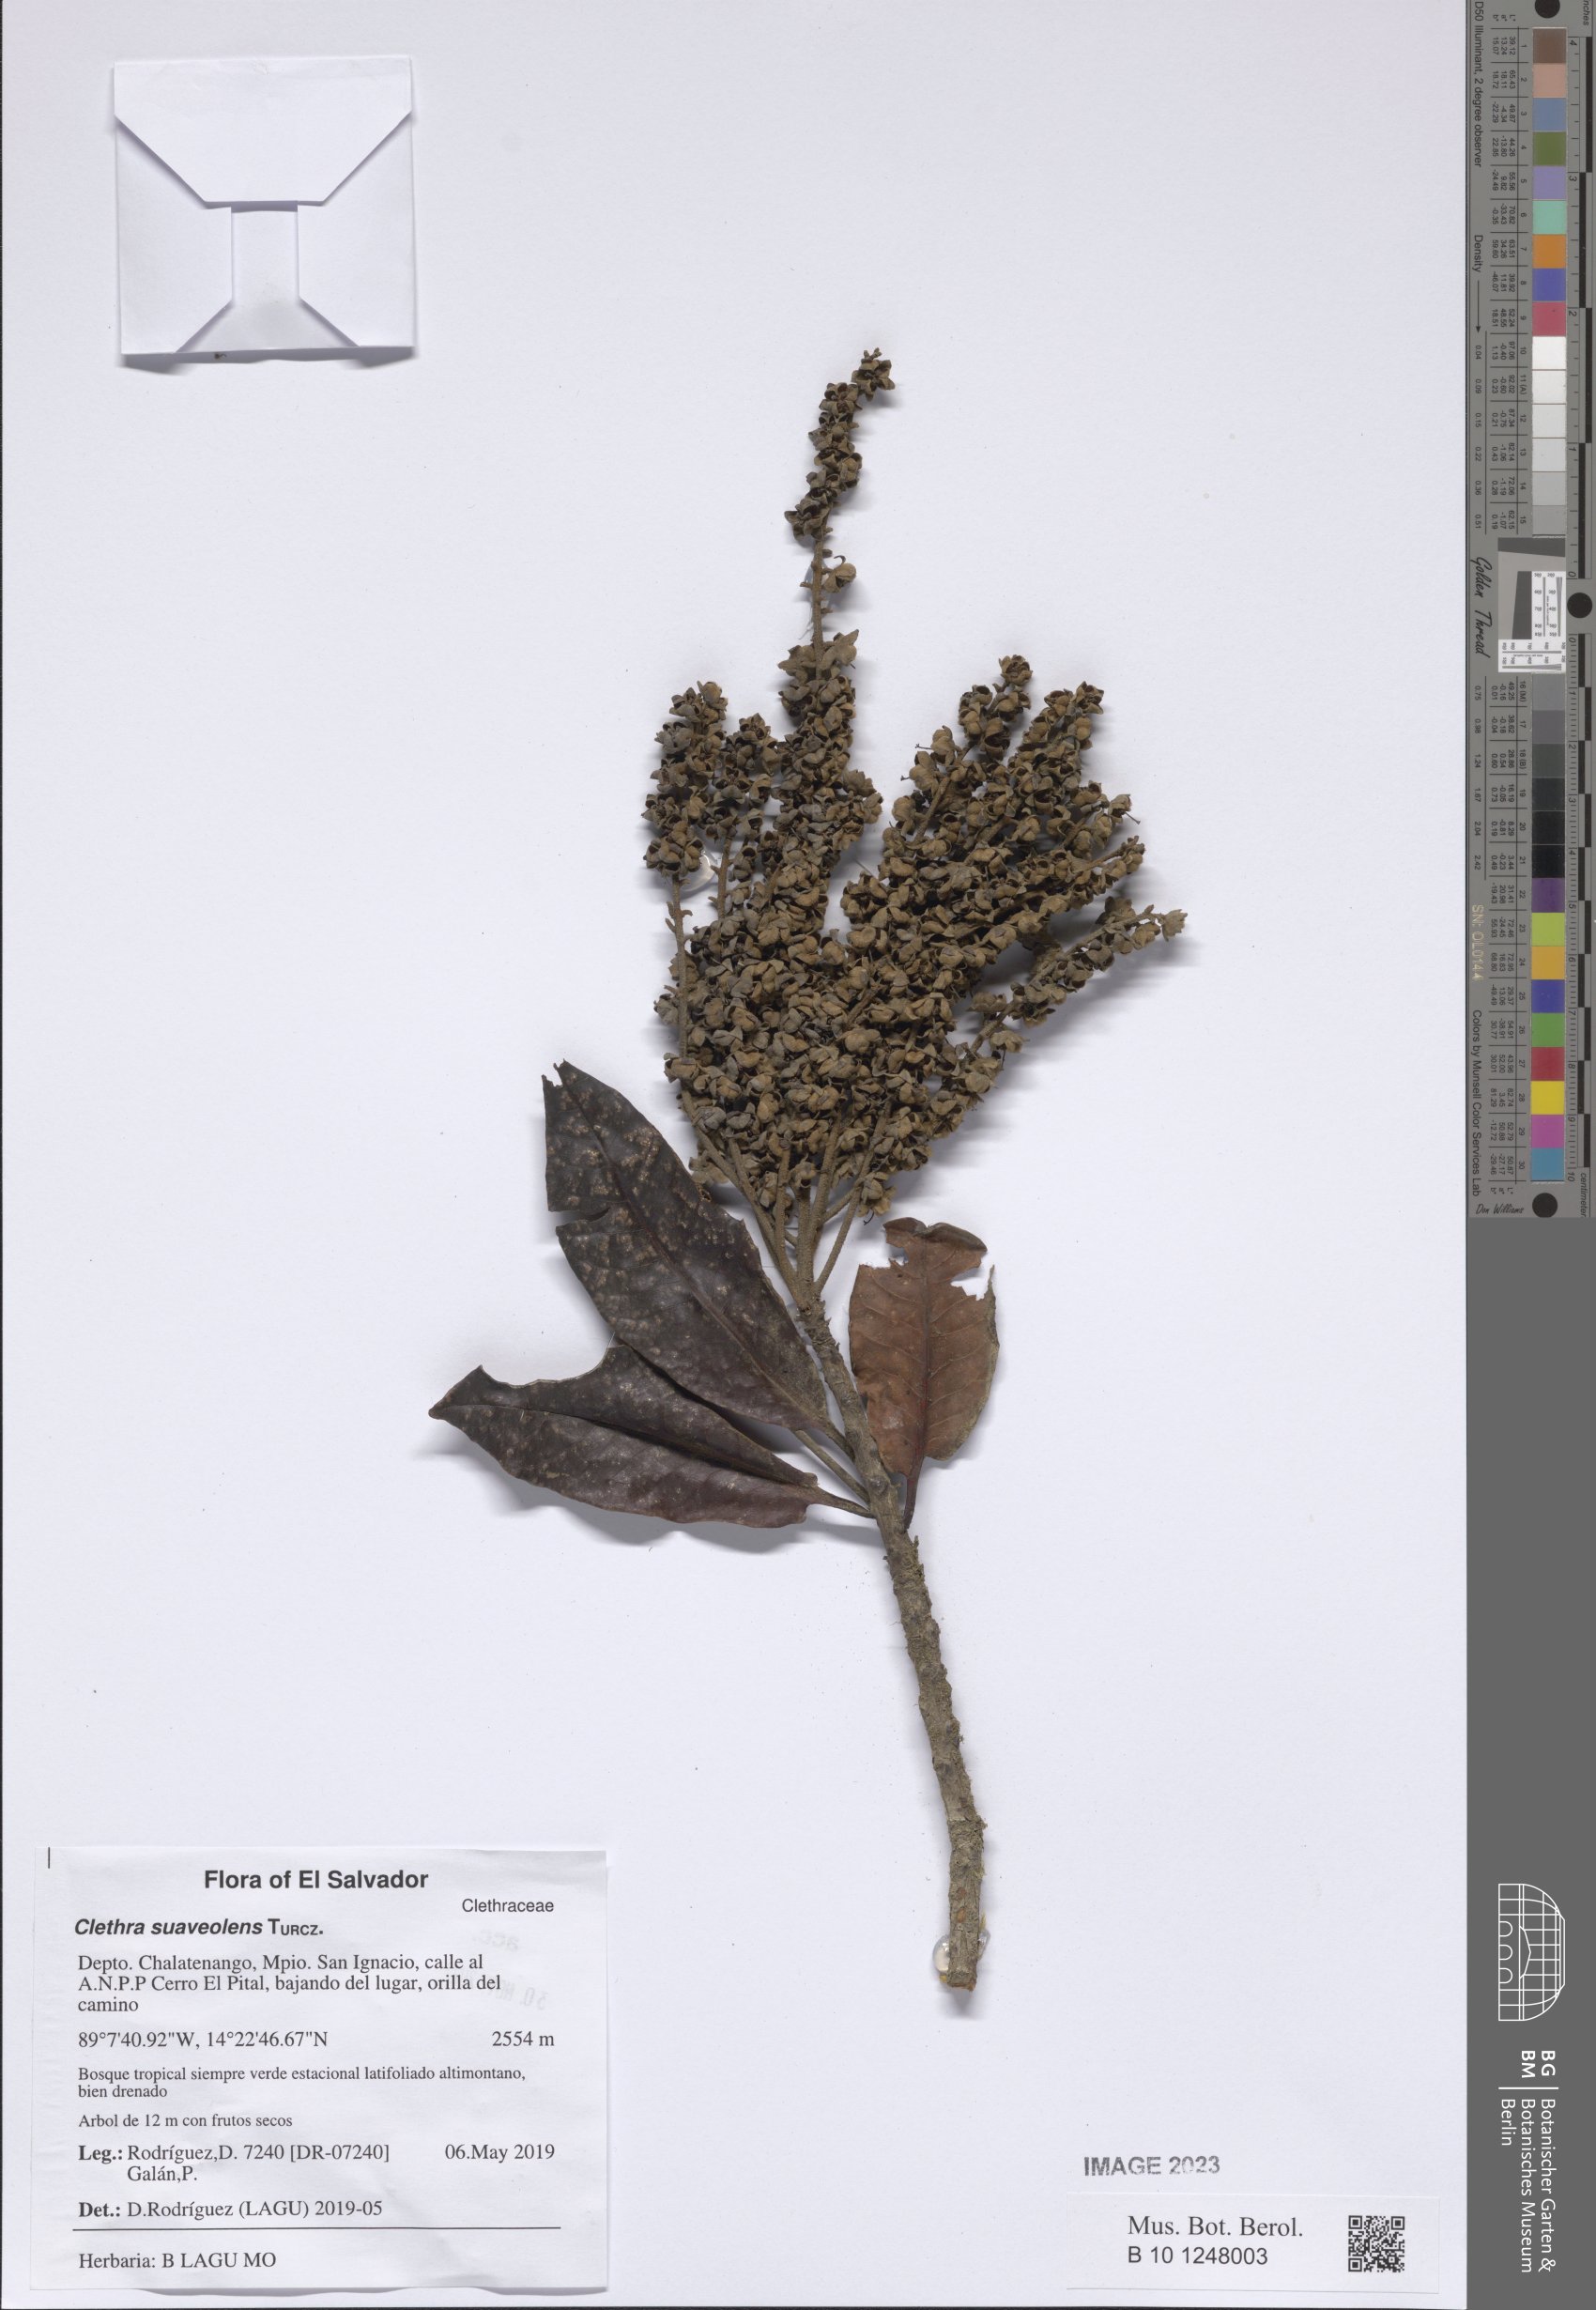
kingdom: Plantae
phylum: Tracheophyta
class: Magnoliopsida
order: Ericales
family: Clethraceae
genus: Clethra
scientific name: Clethra suaveolens
